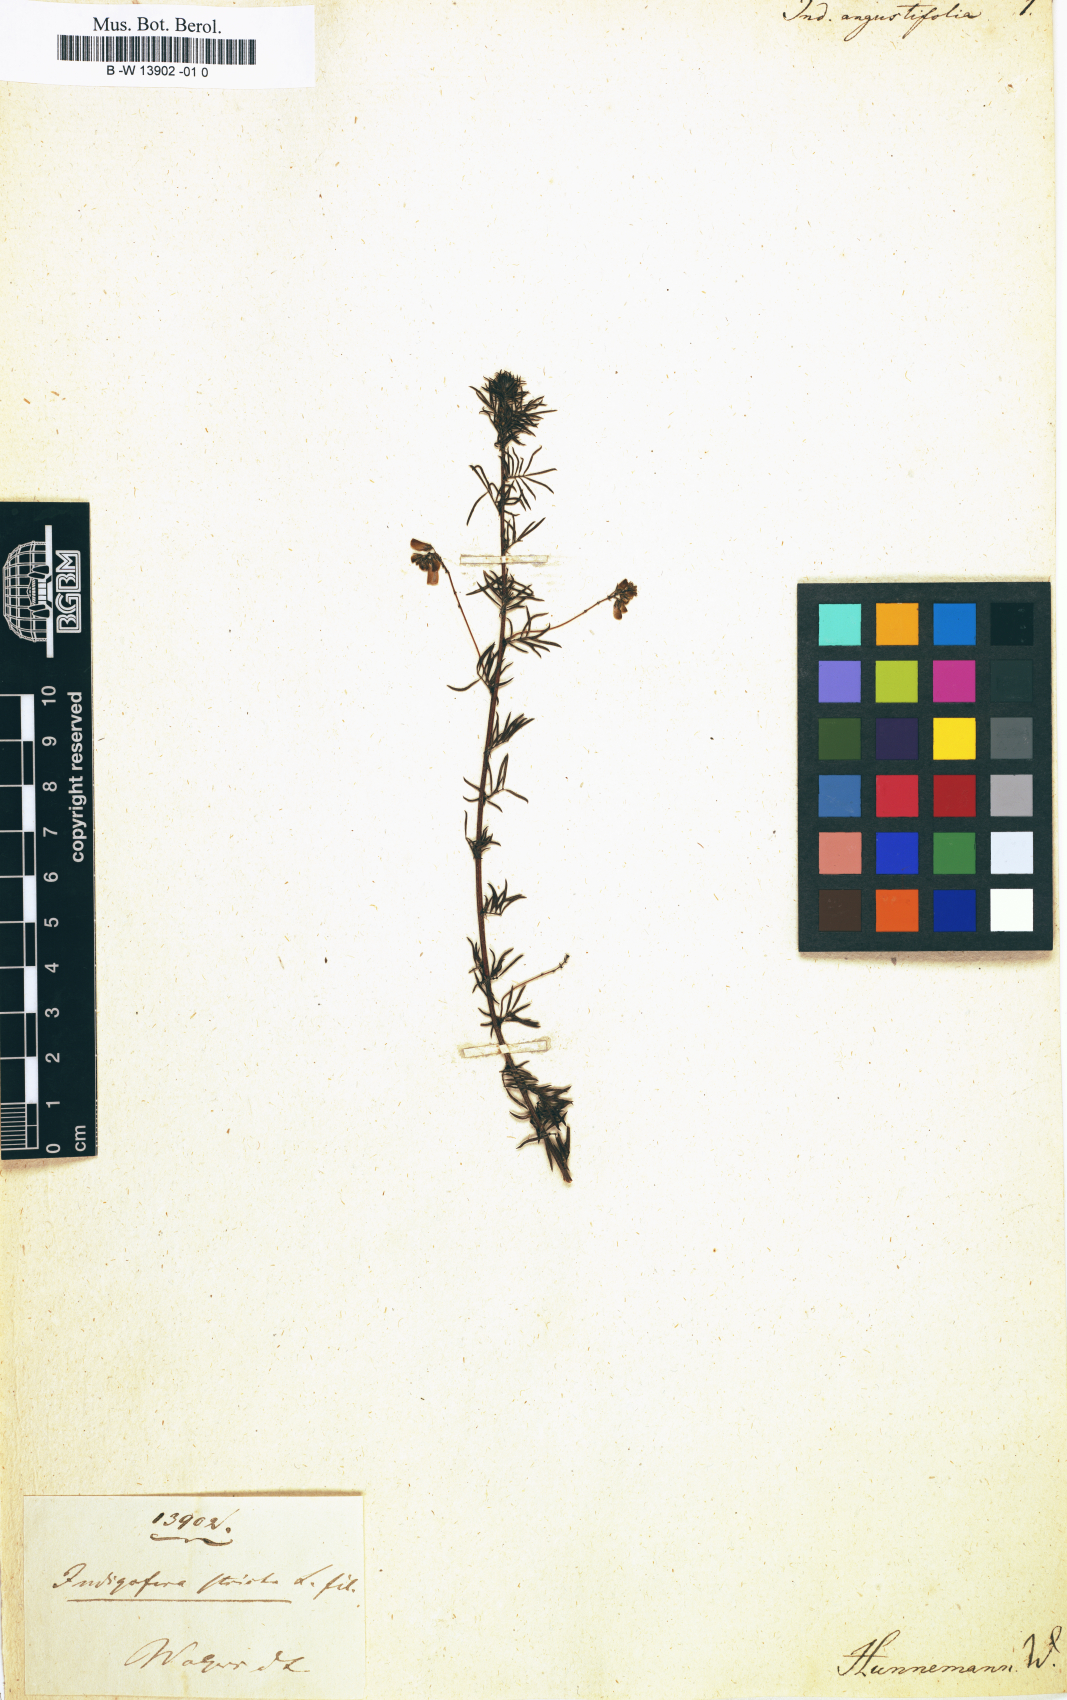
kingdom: Plantae
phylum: Tracheophyta
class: Magnoliopsida
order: Fabales
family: Fabaceae
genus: Indigofera
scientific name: Indigofera angustifolia
